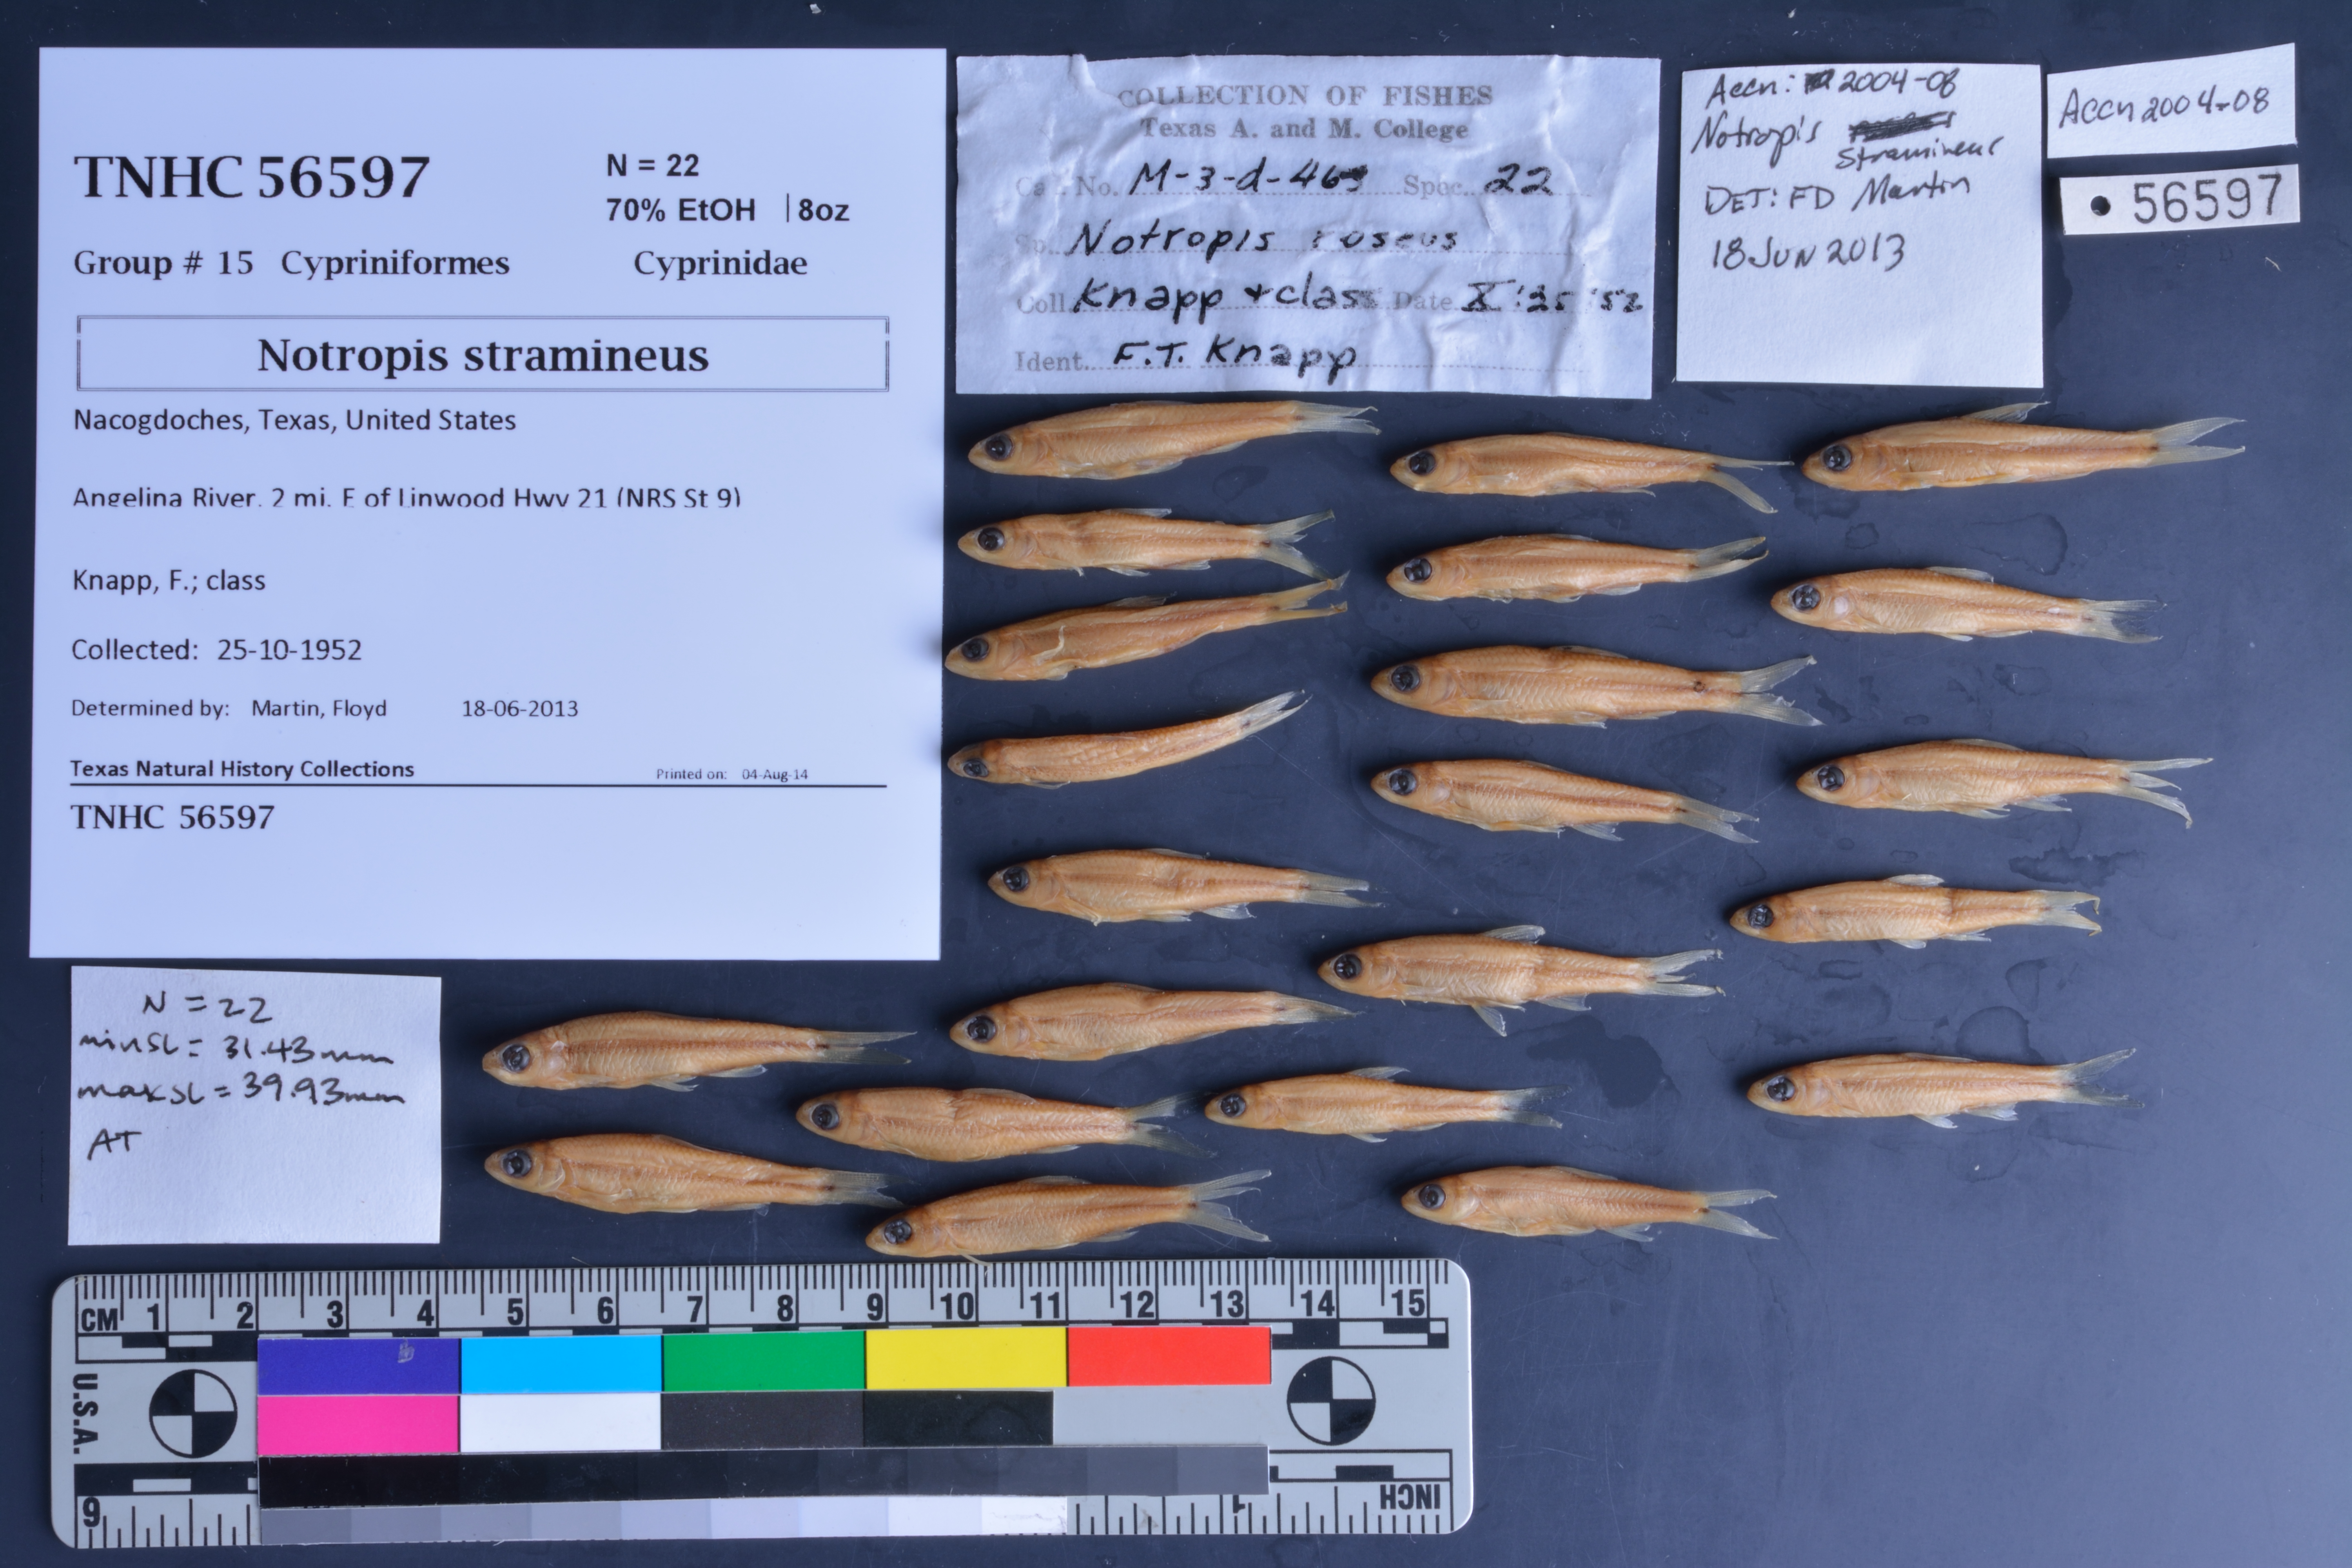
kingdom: Animalia
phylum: Chordata
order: Cypriniformes
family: Cyprinidae
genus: Notropis
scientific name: Notropis stramineus
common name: Sand shiner
